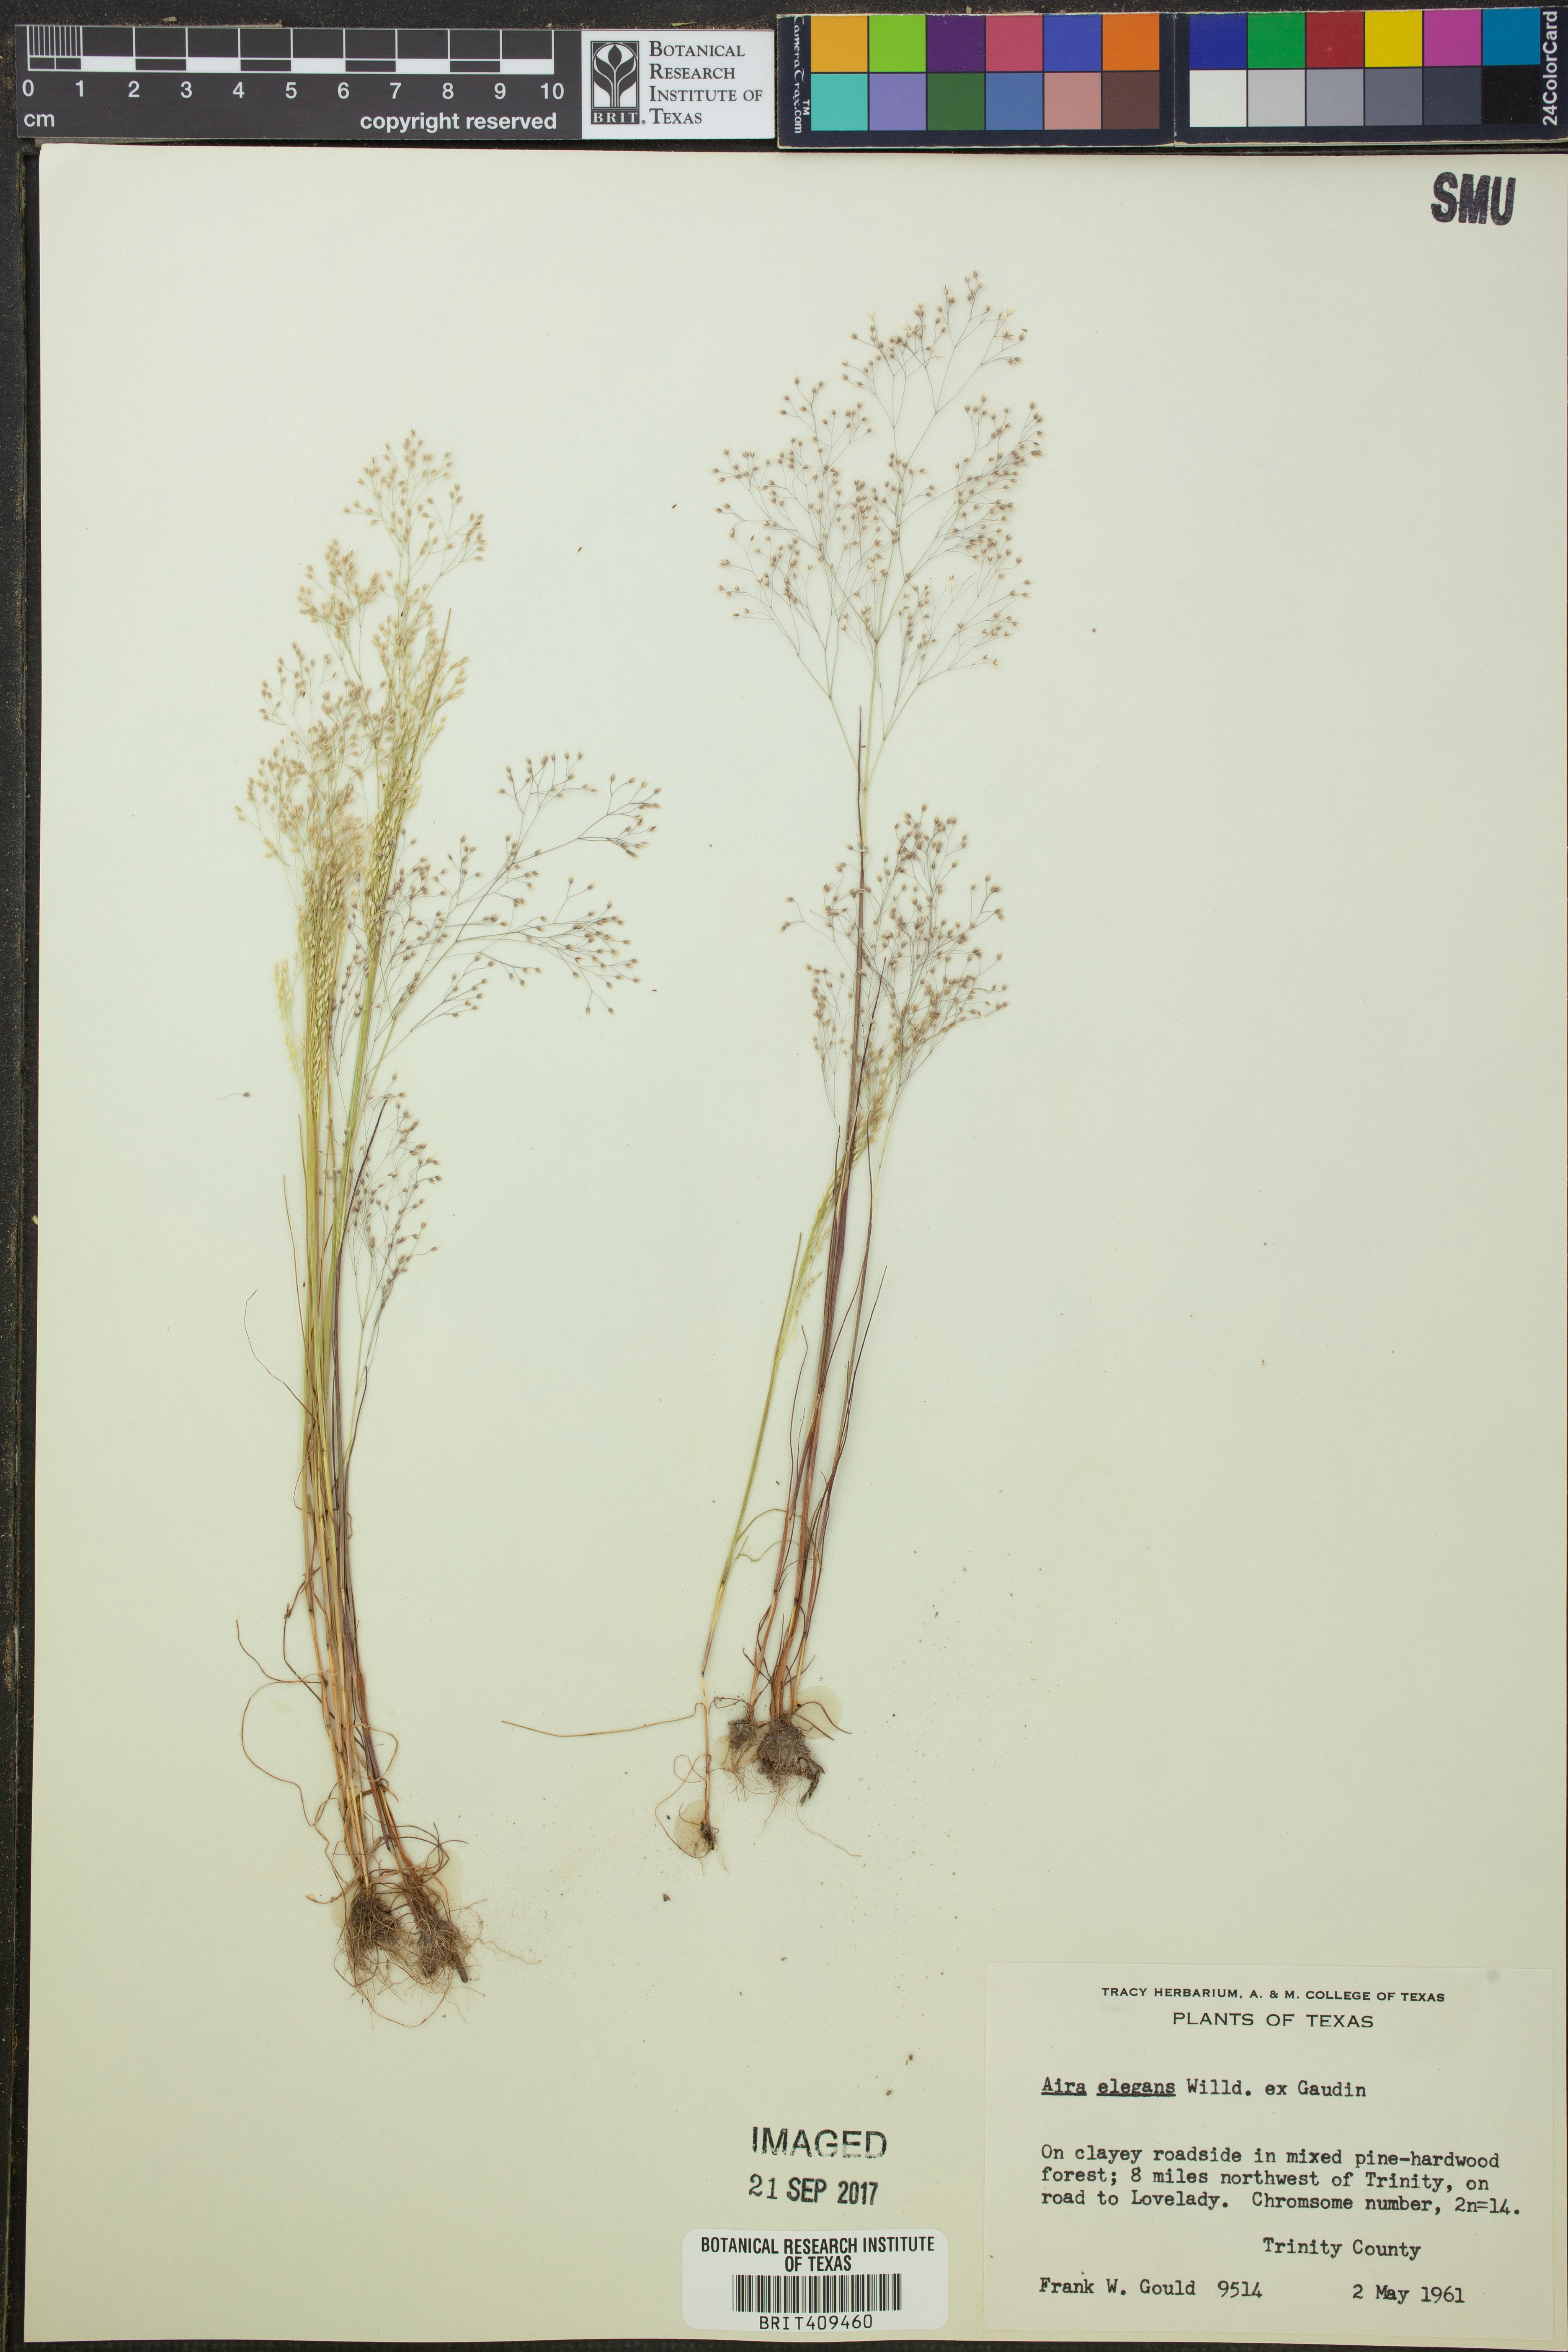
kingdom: Plantae
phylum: Tracheophyta
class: Liliopsida
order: Poales
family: Poaceae
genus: Aira
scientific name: Aira elegans
